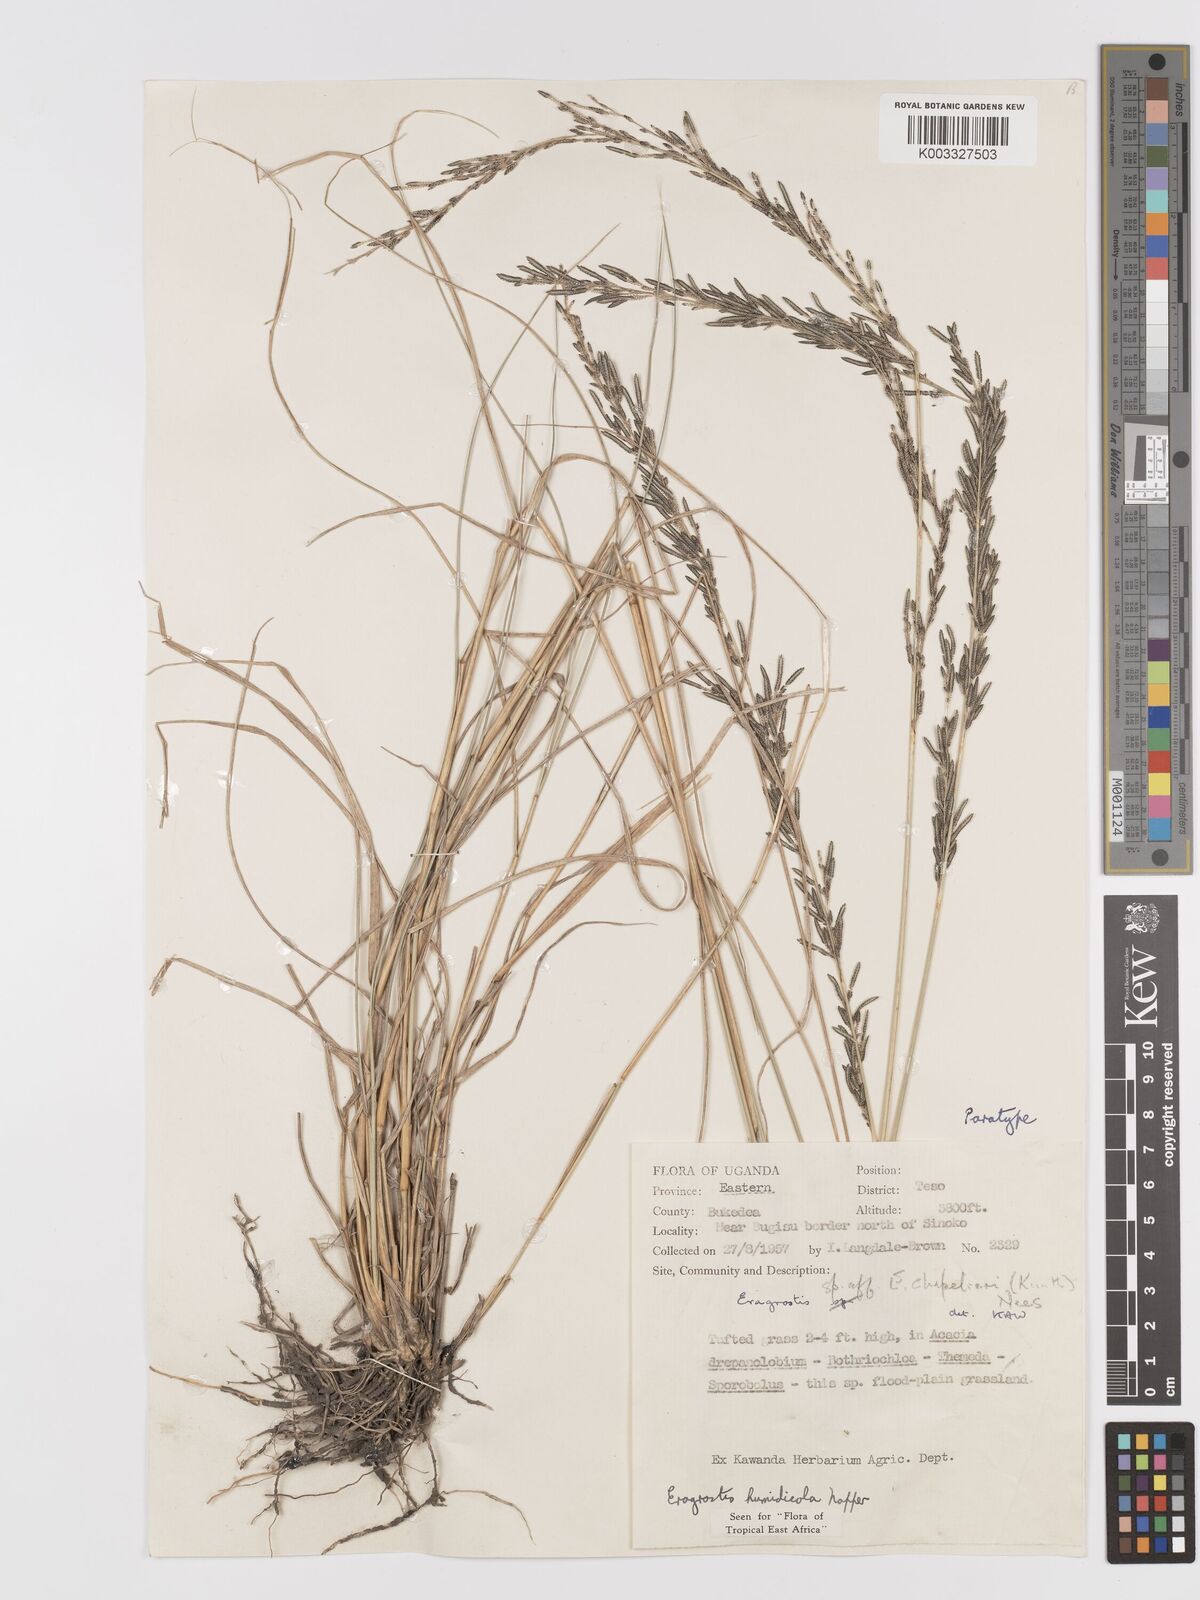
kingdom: Plantae
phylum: Tracheophyta
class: Liliopsida
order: Poales
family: Poaceae
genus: Eragrostis
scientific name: Eragrostis humidicola
